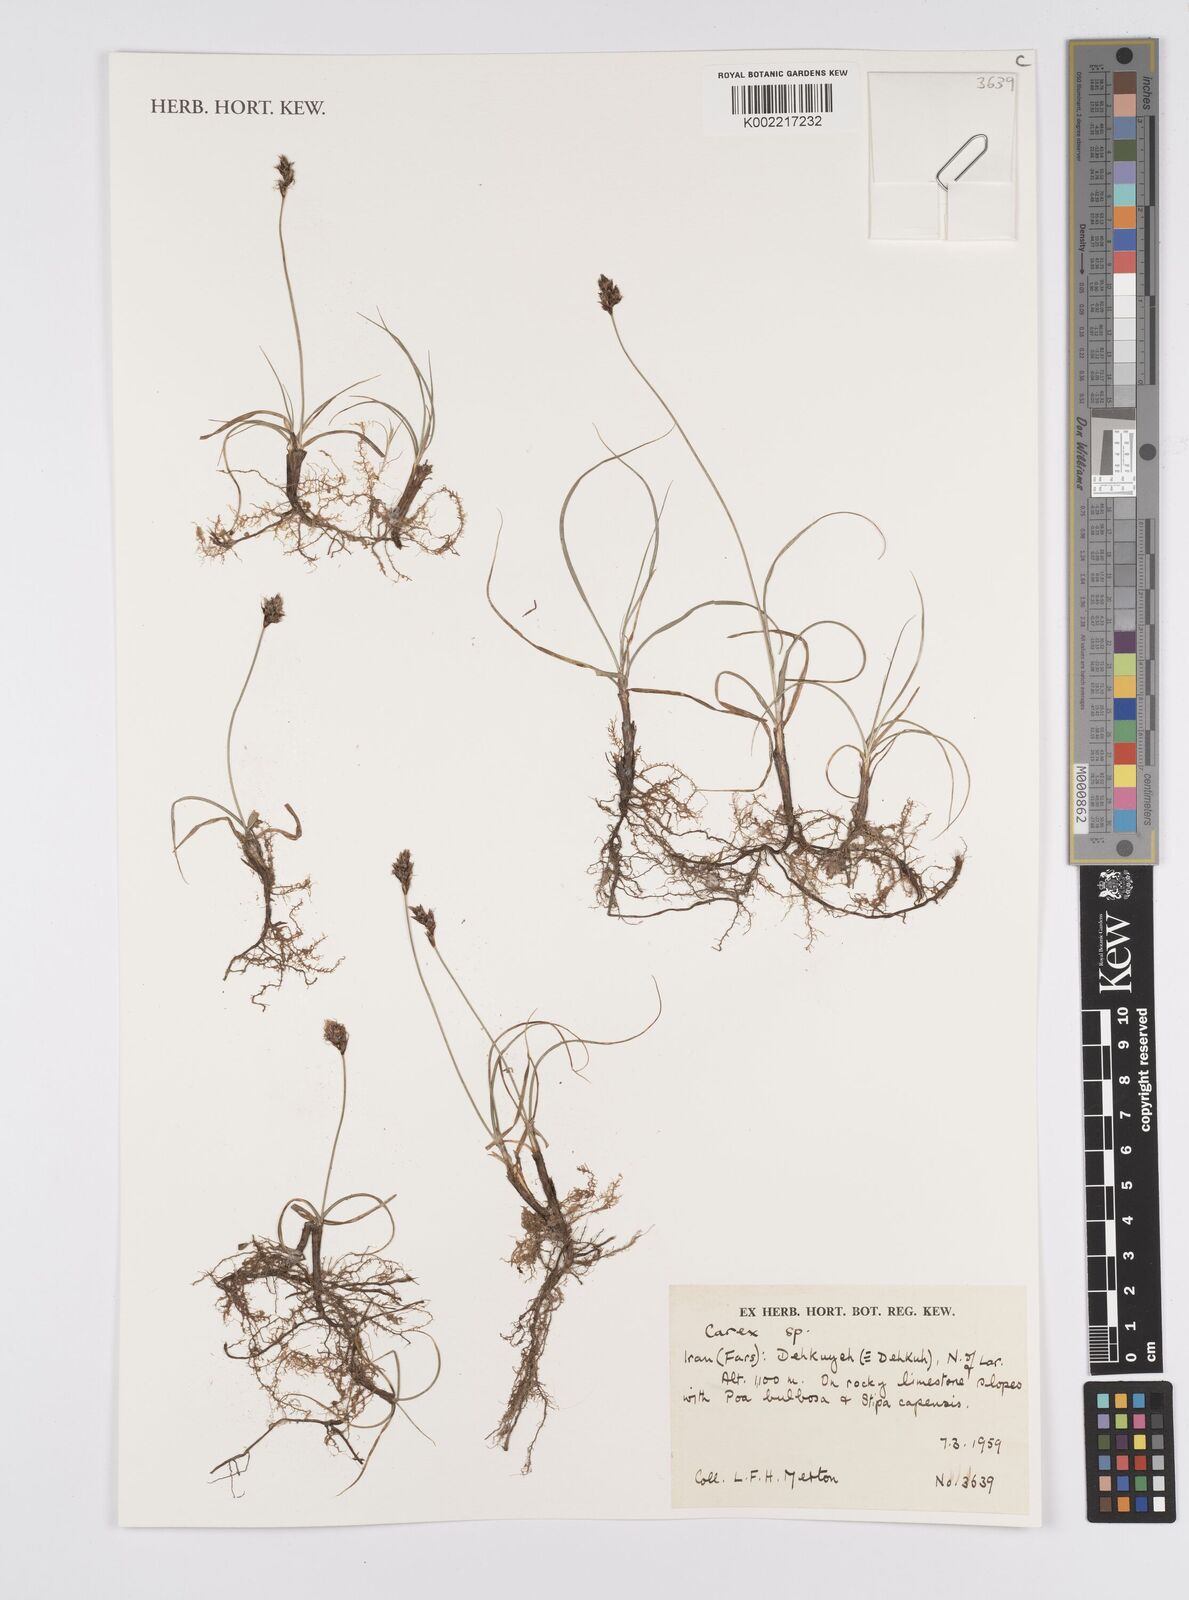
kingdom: Plantae
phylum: Tracheophyta
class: Liliopsida
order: Poales
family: Cyperaceae
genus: Carex
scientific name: Carex
